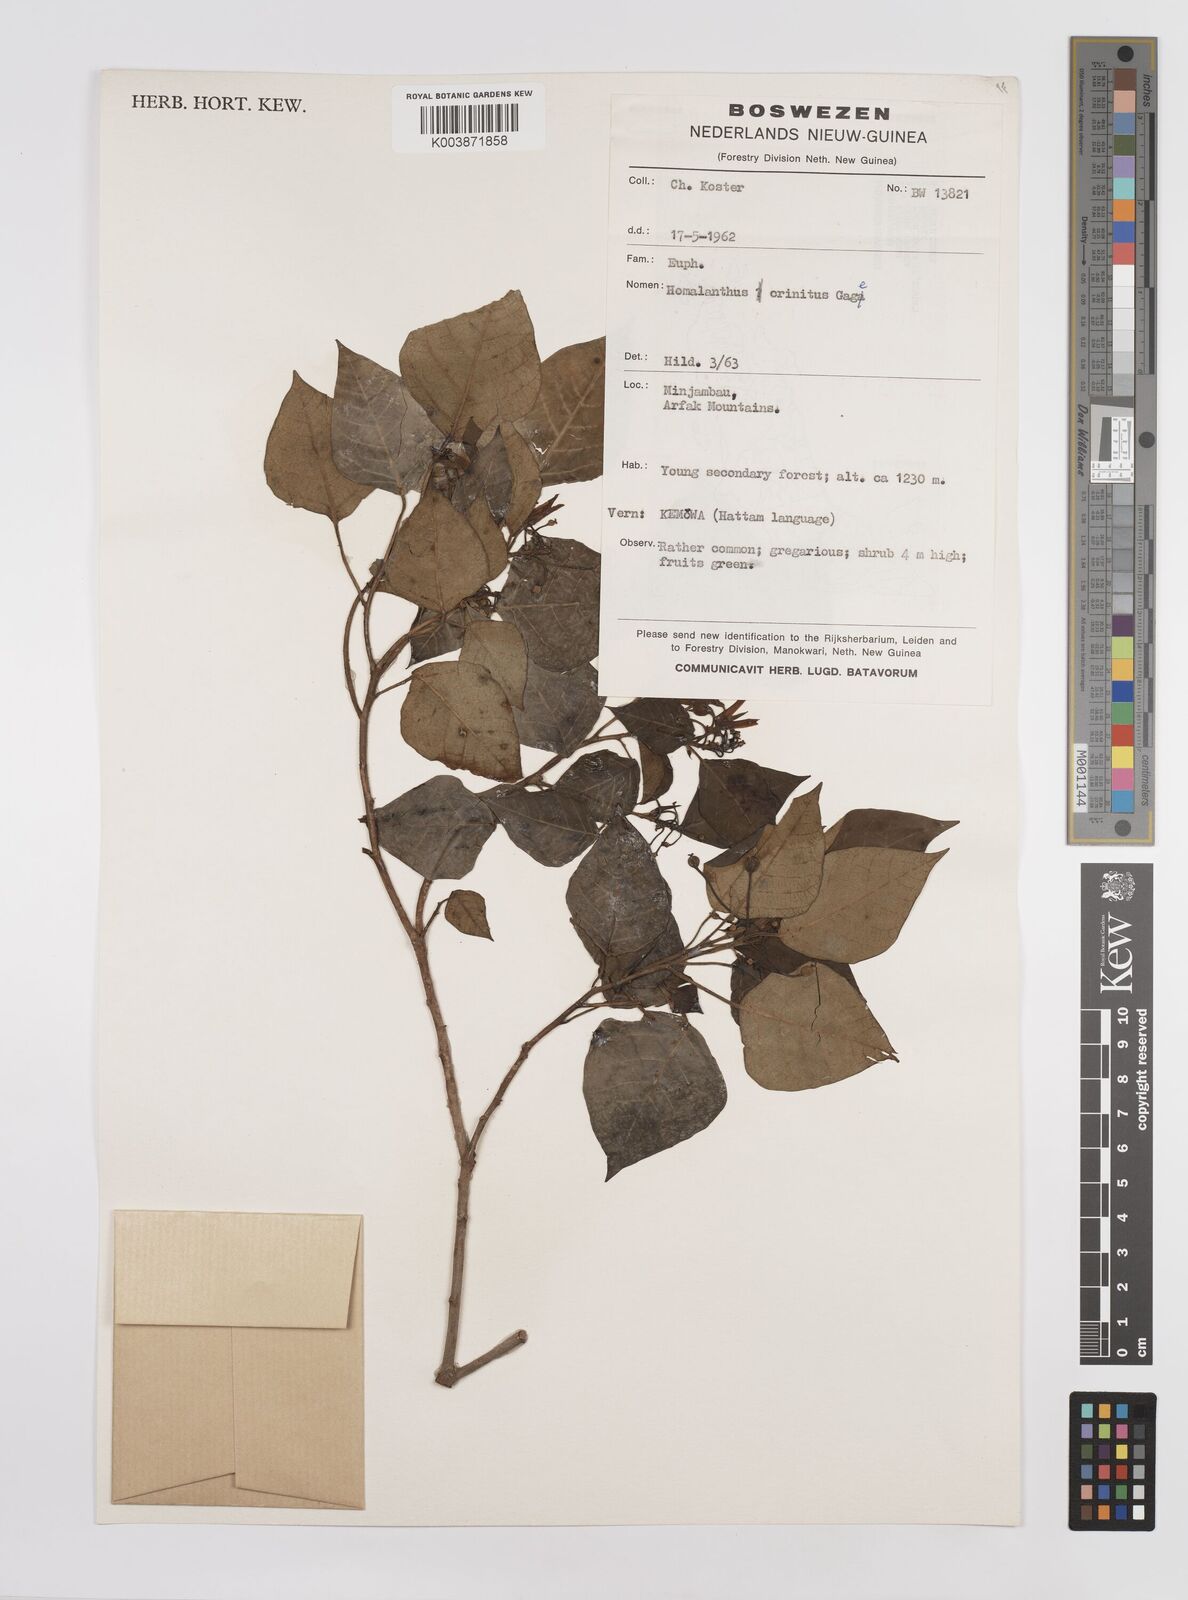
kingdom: Plantae
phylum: Tracheophyta
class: Magnoliopsida
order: Malpighiales
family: Euphorbiaceae
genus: Homalanthus
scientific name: Homalanthus novoguineensis
